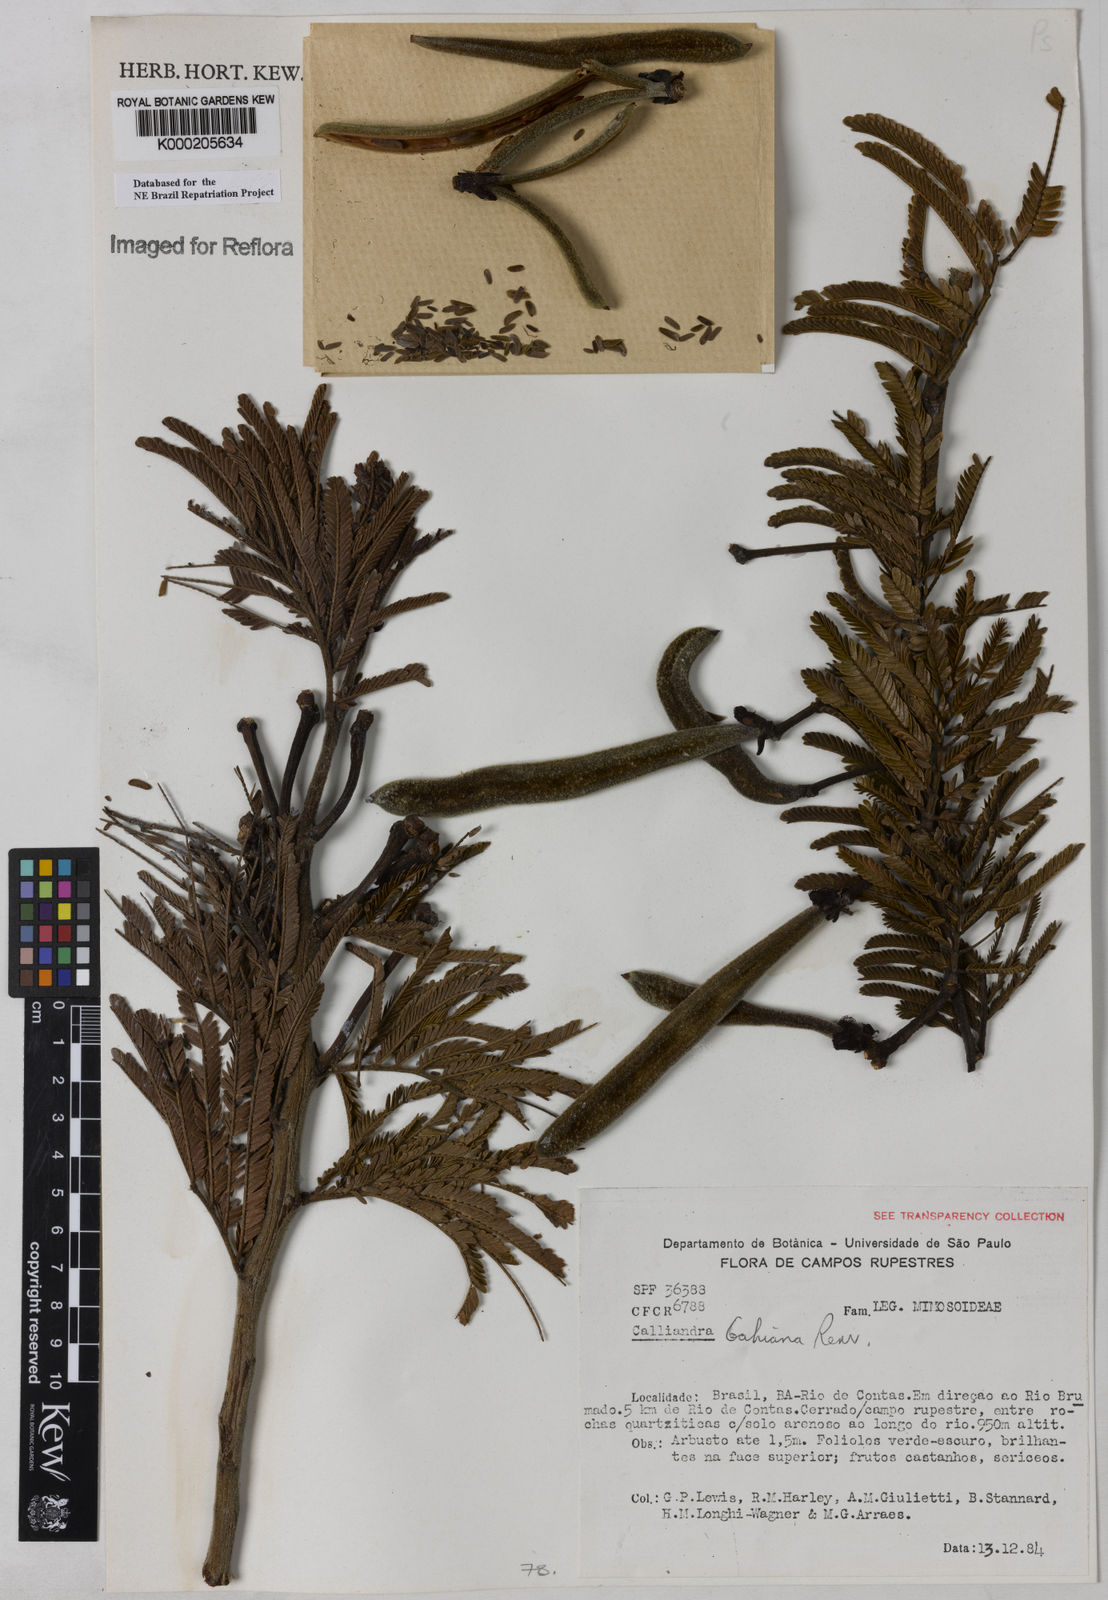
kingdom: Plantae
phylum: Tracheophyta
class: Magnoliopsida
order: Fabales
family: Fabaceae
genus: Calliandra
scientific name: Calliandra bahiana
